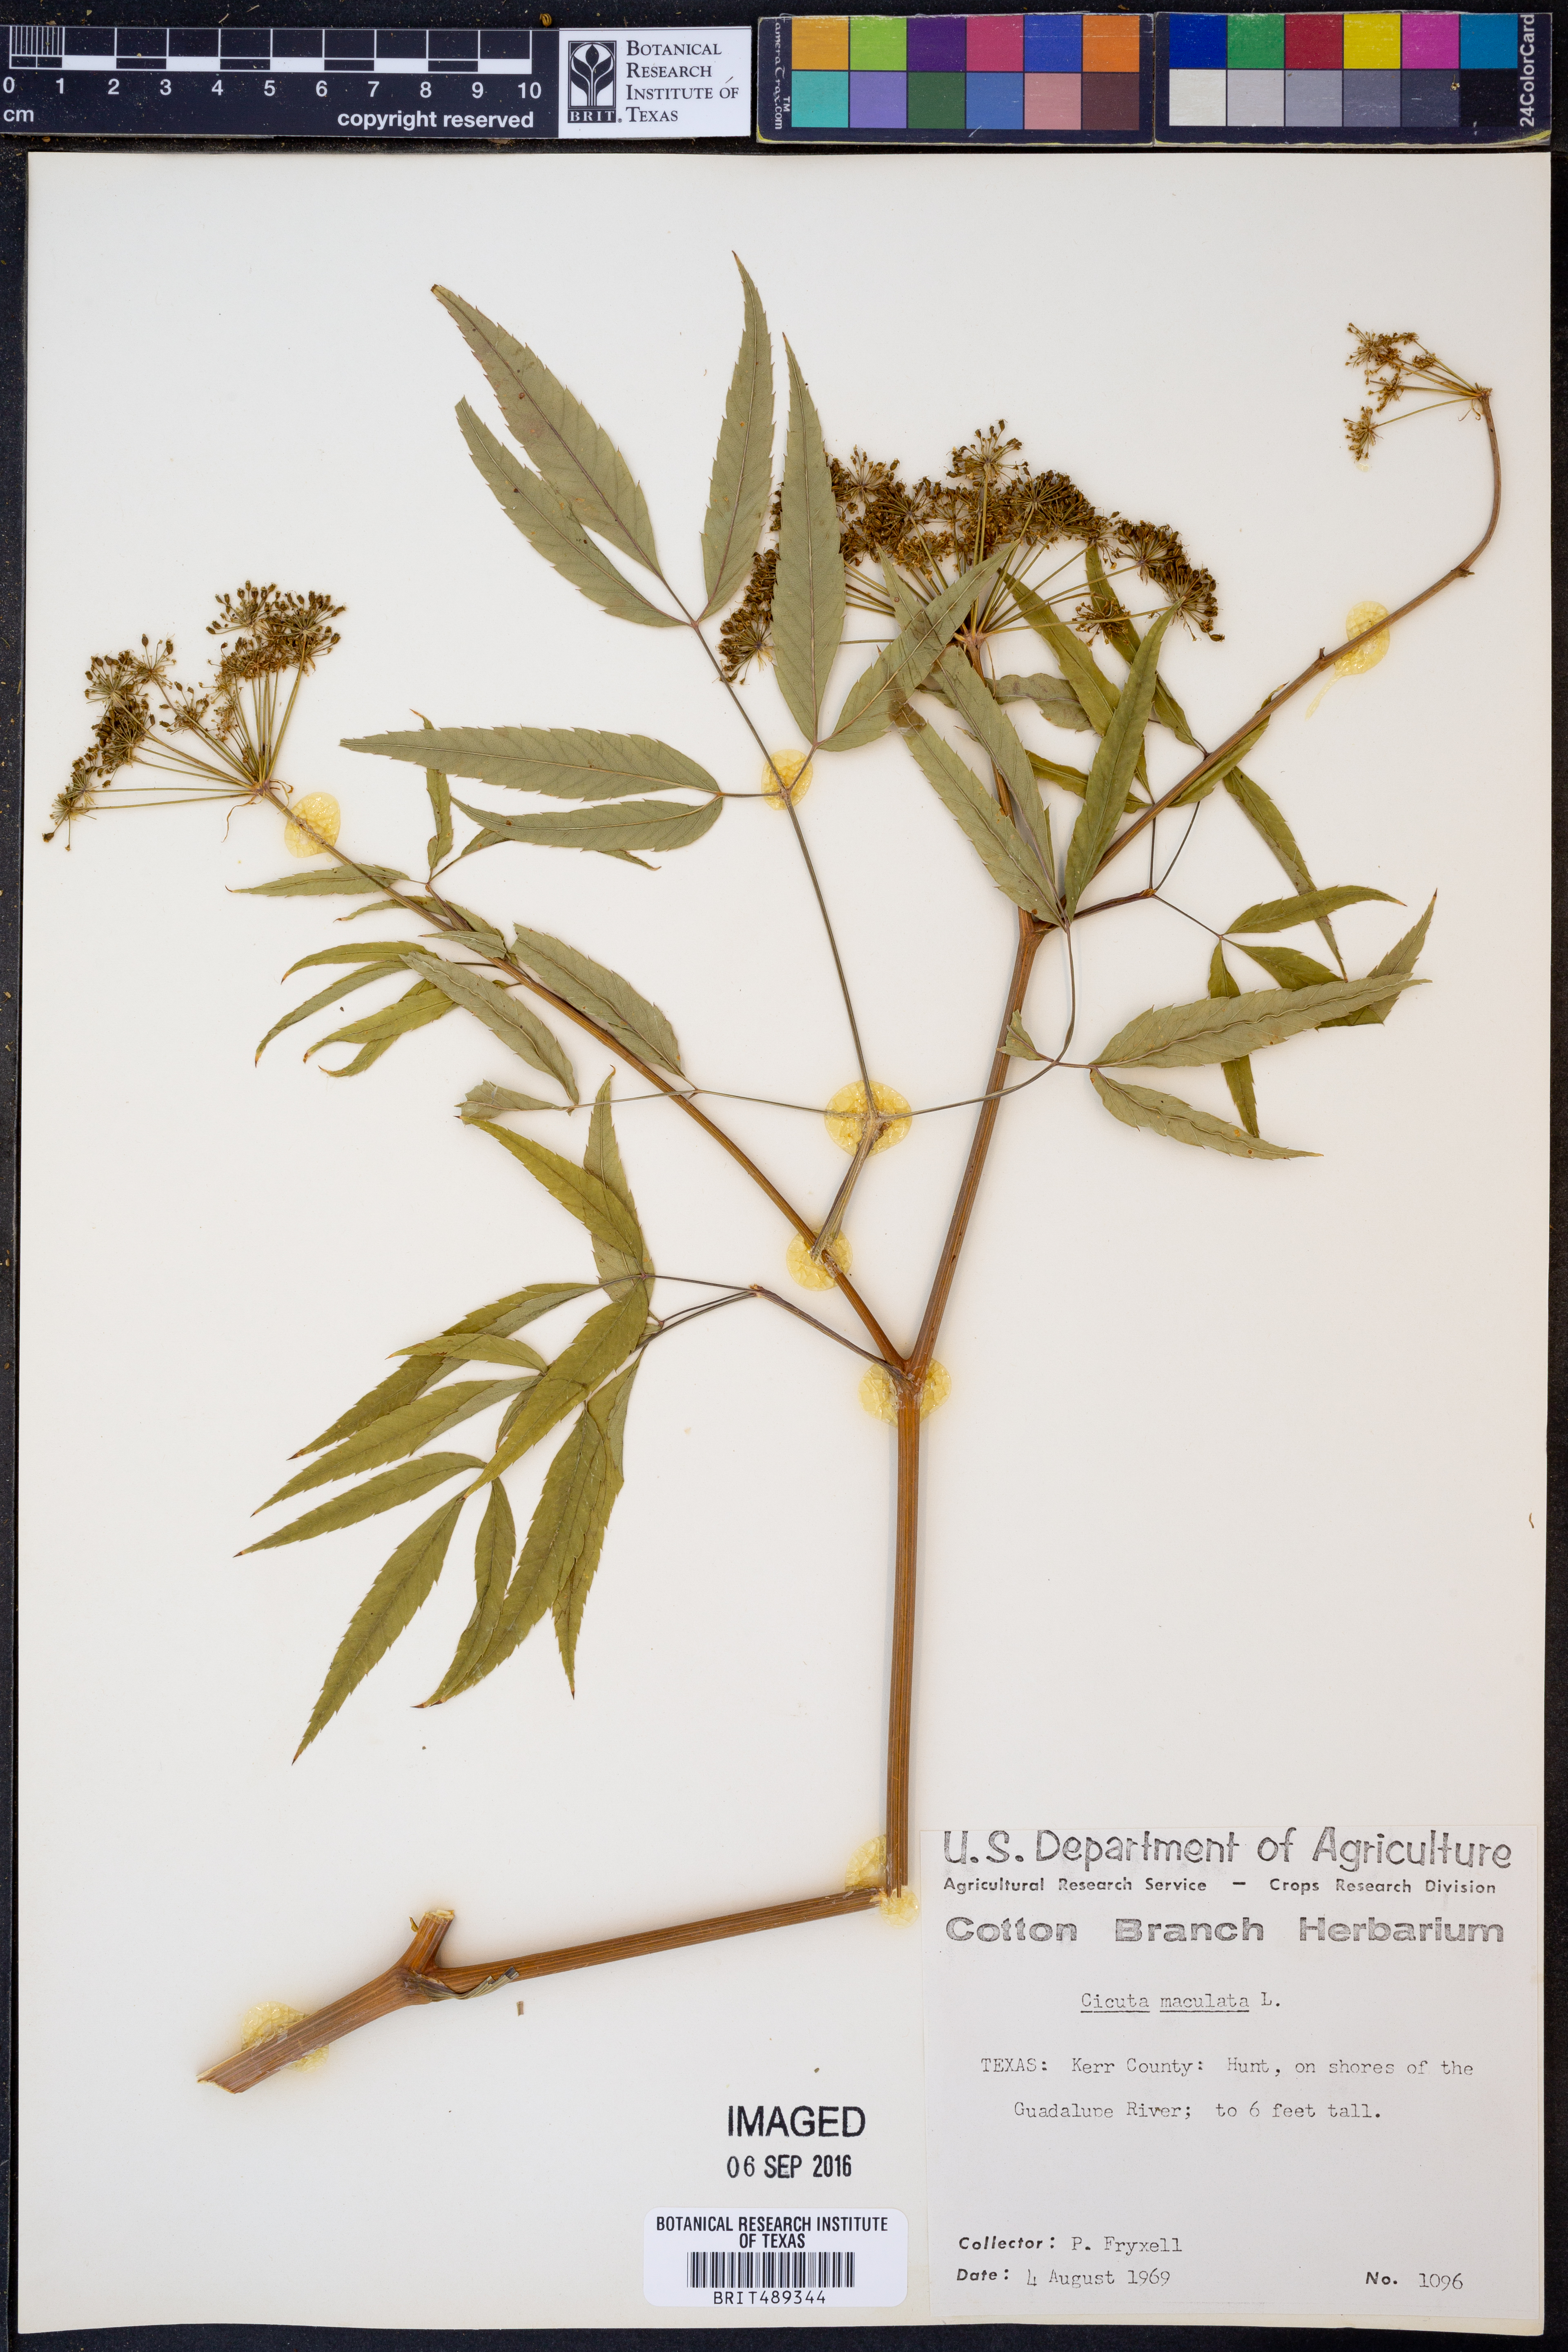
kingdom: Plantae
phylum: Tracheophyta
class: Magnoliopsida
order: Apiales
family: Apiaceae
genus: Cicuta
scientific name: Cicuta maculata
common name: Spotted cowbane
